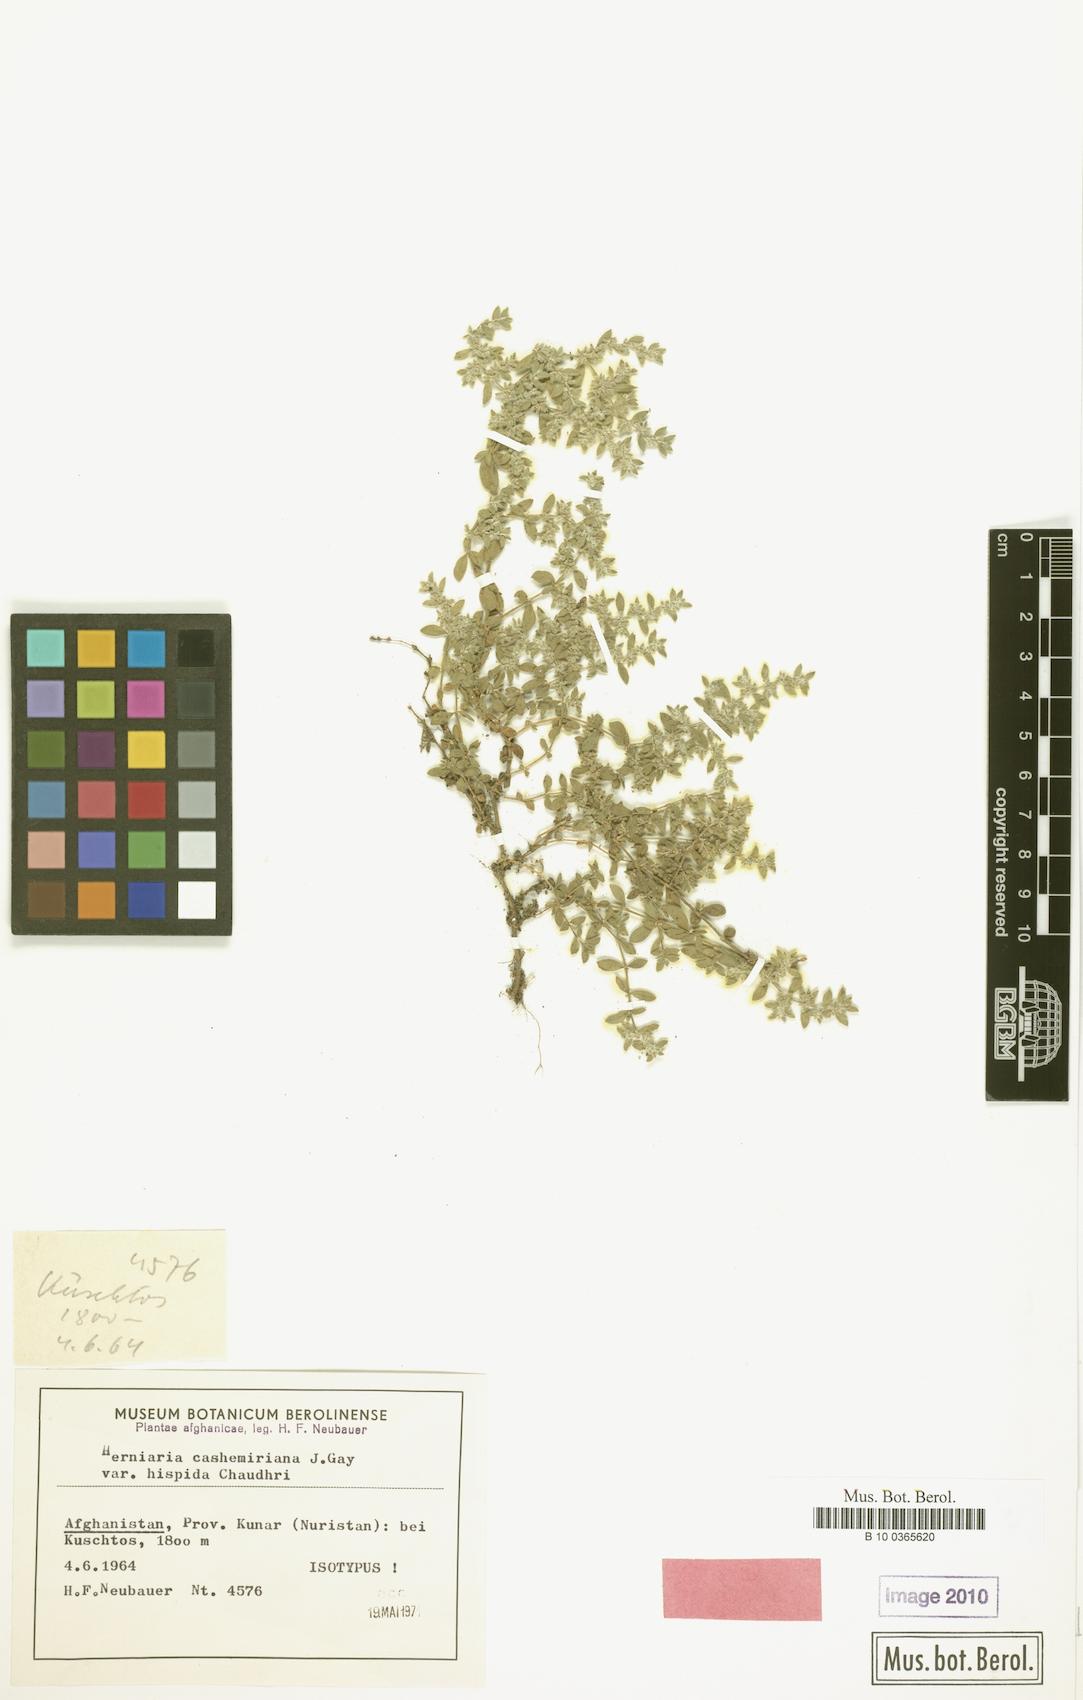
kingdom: Plantae
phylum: Tracheophyta
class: Magnoliopsida
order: Caryophyllales
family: Caryophyllaceae
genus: Herniaria
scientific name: Herniaria cachemiriana
